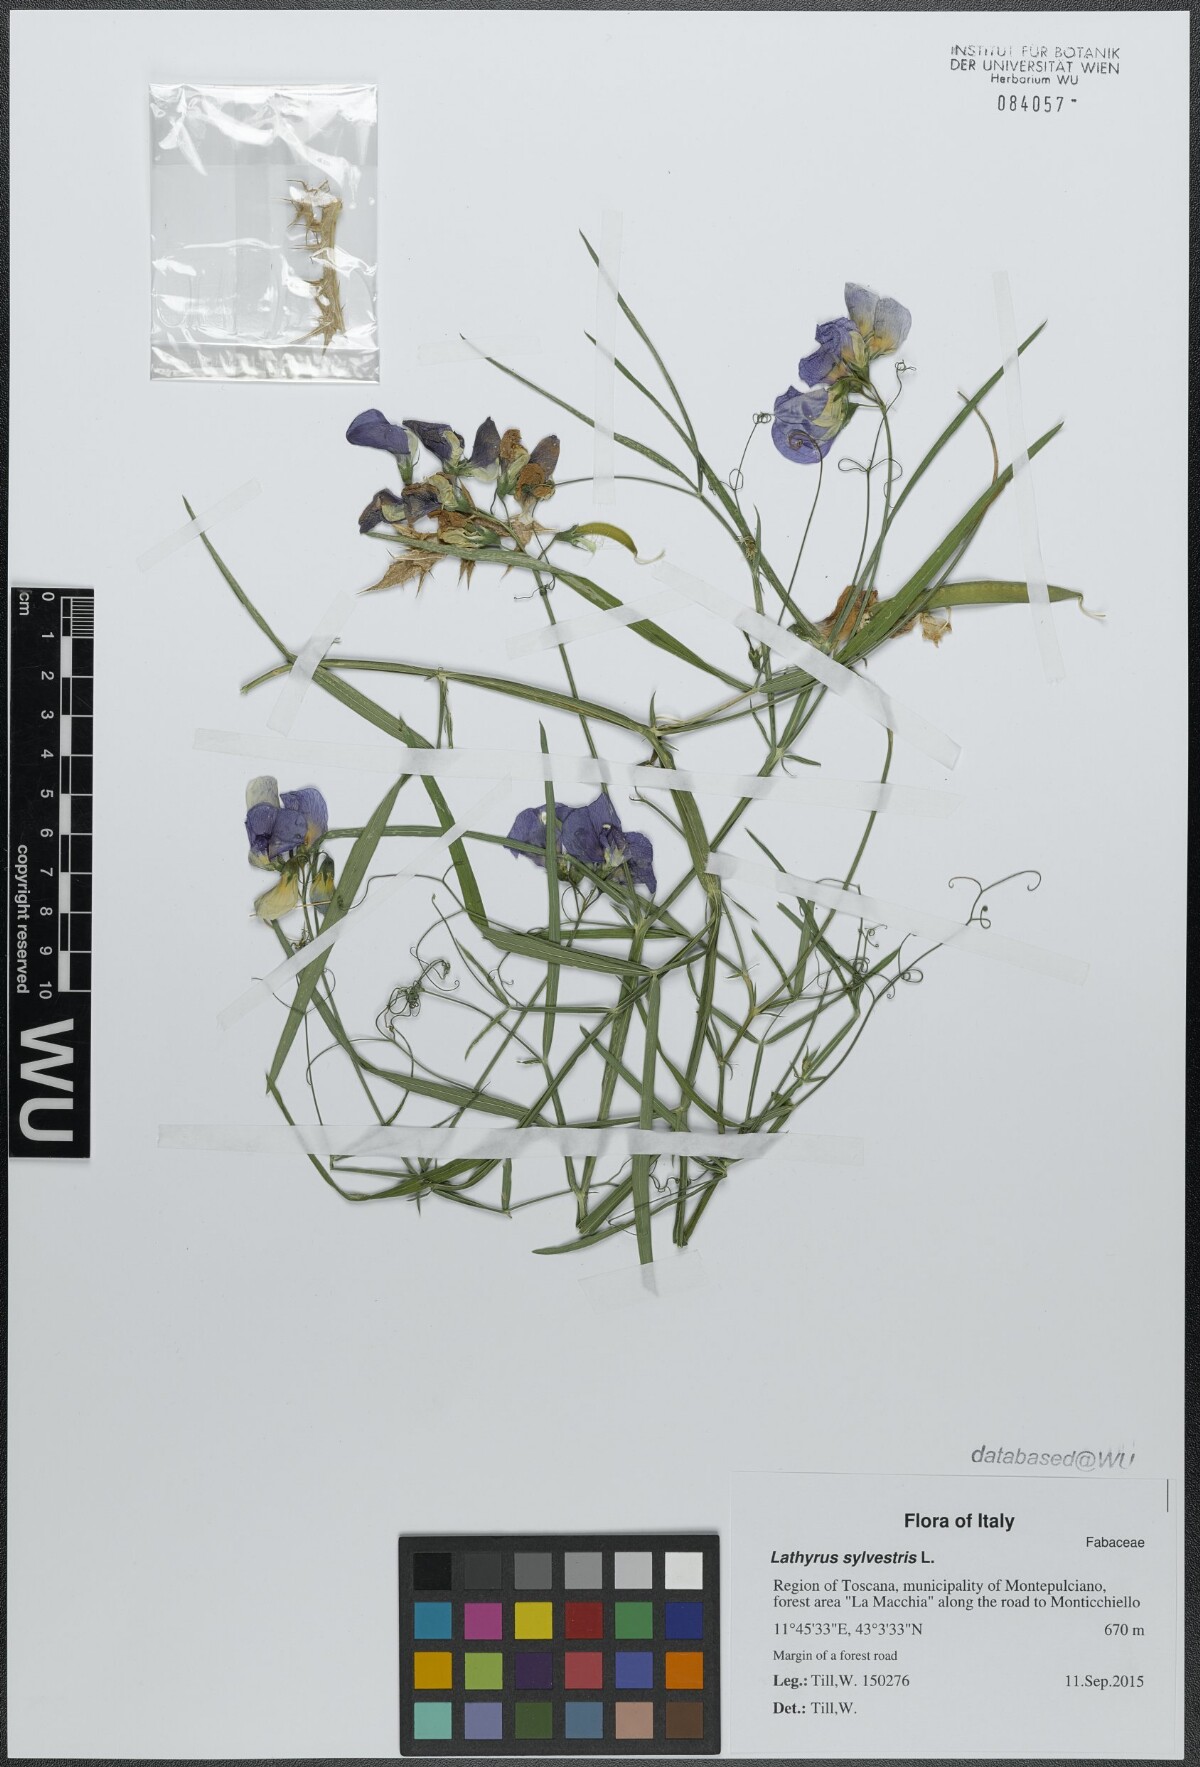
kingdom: Plantae
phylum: Tracheophyta
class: Magnoliopsida
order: Fabales
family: Fabaceae
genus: Lathyrus
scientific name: Lathyrus sylvestris
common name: Flat pea
